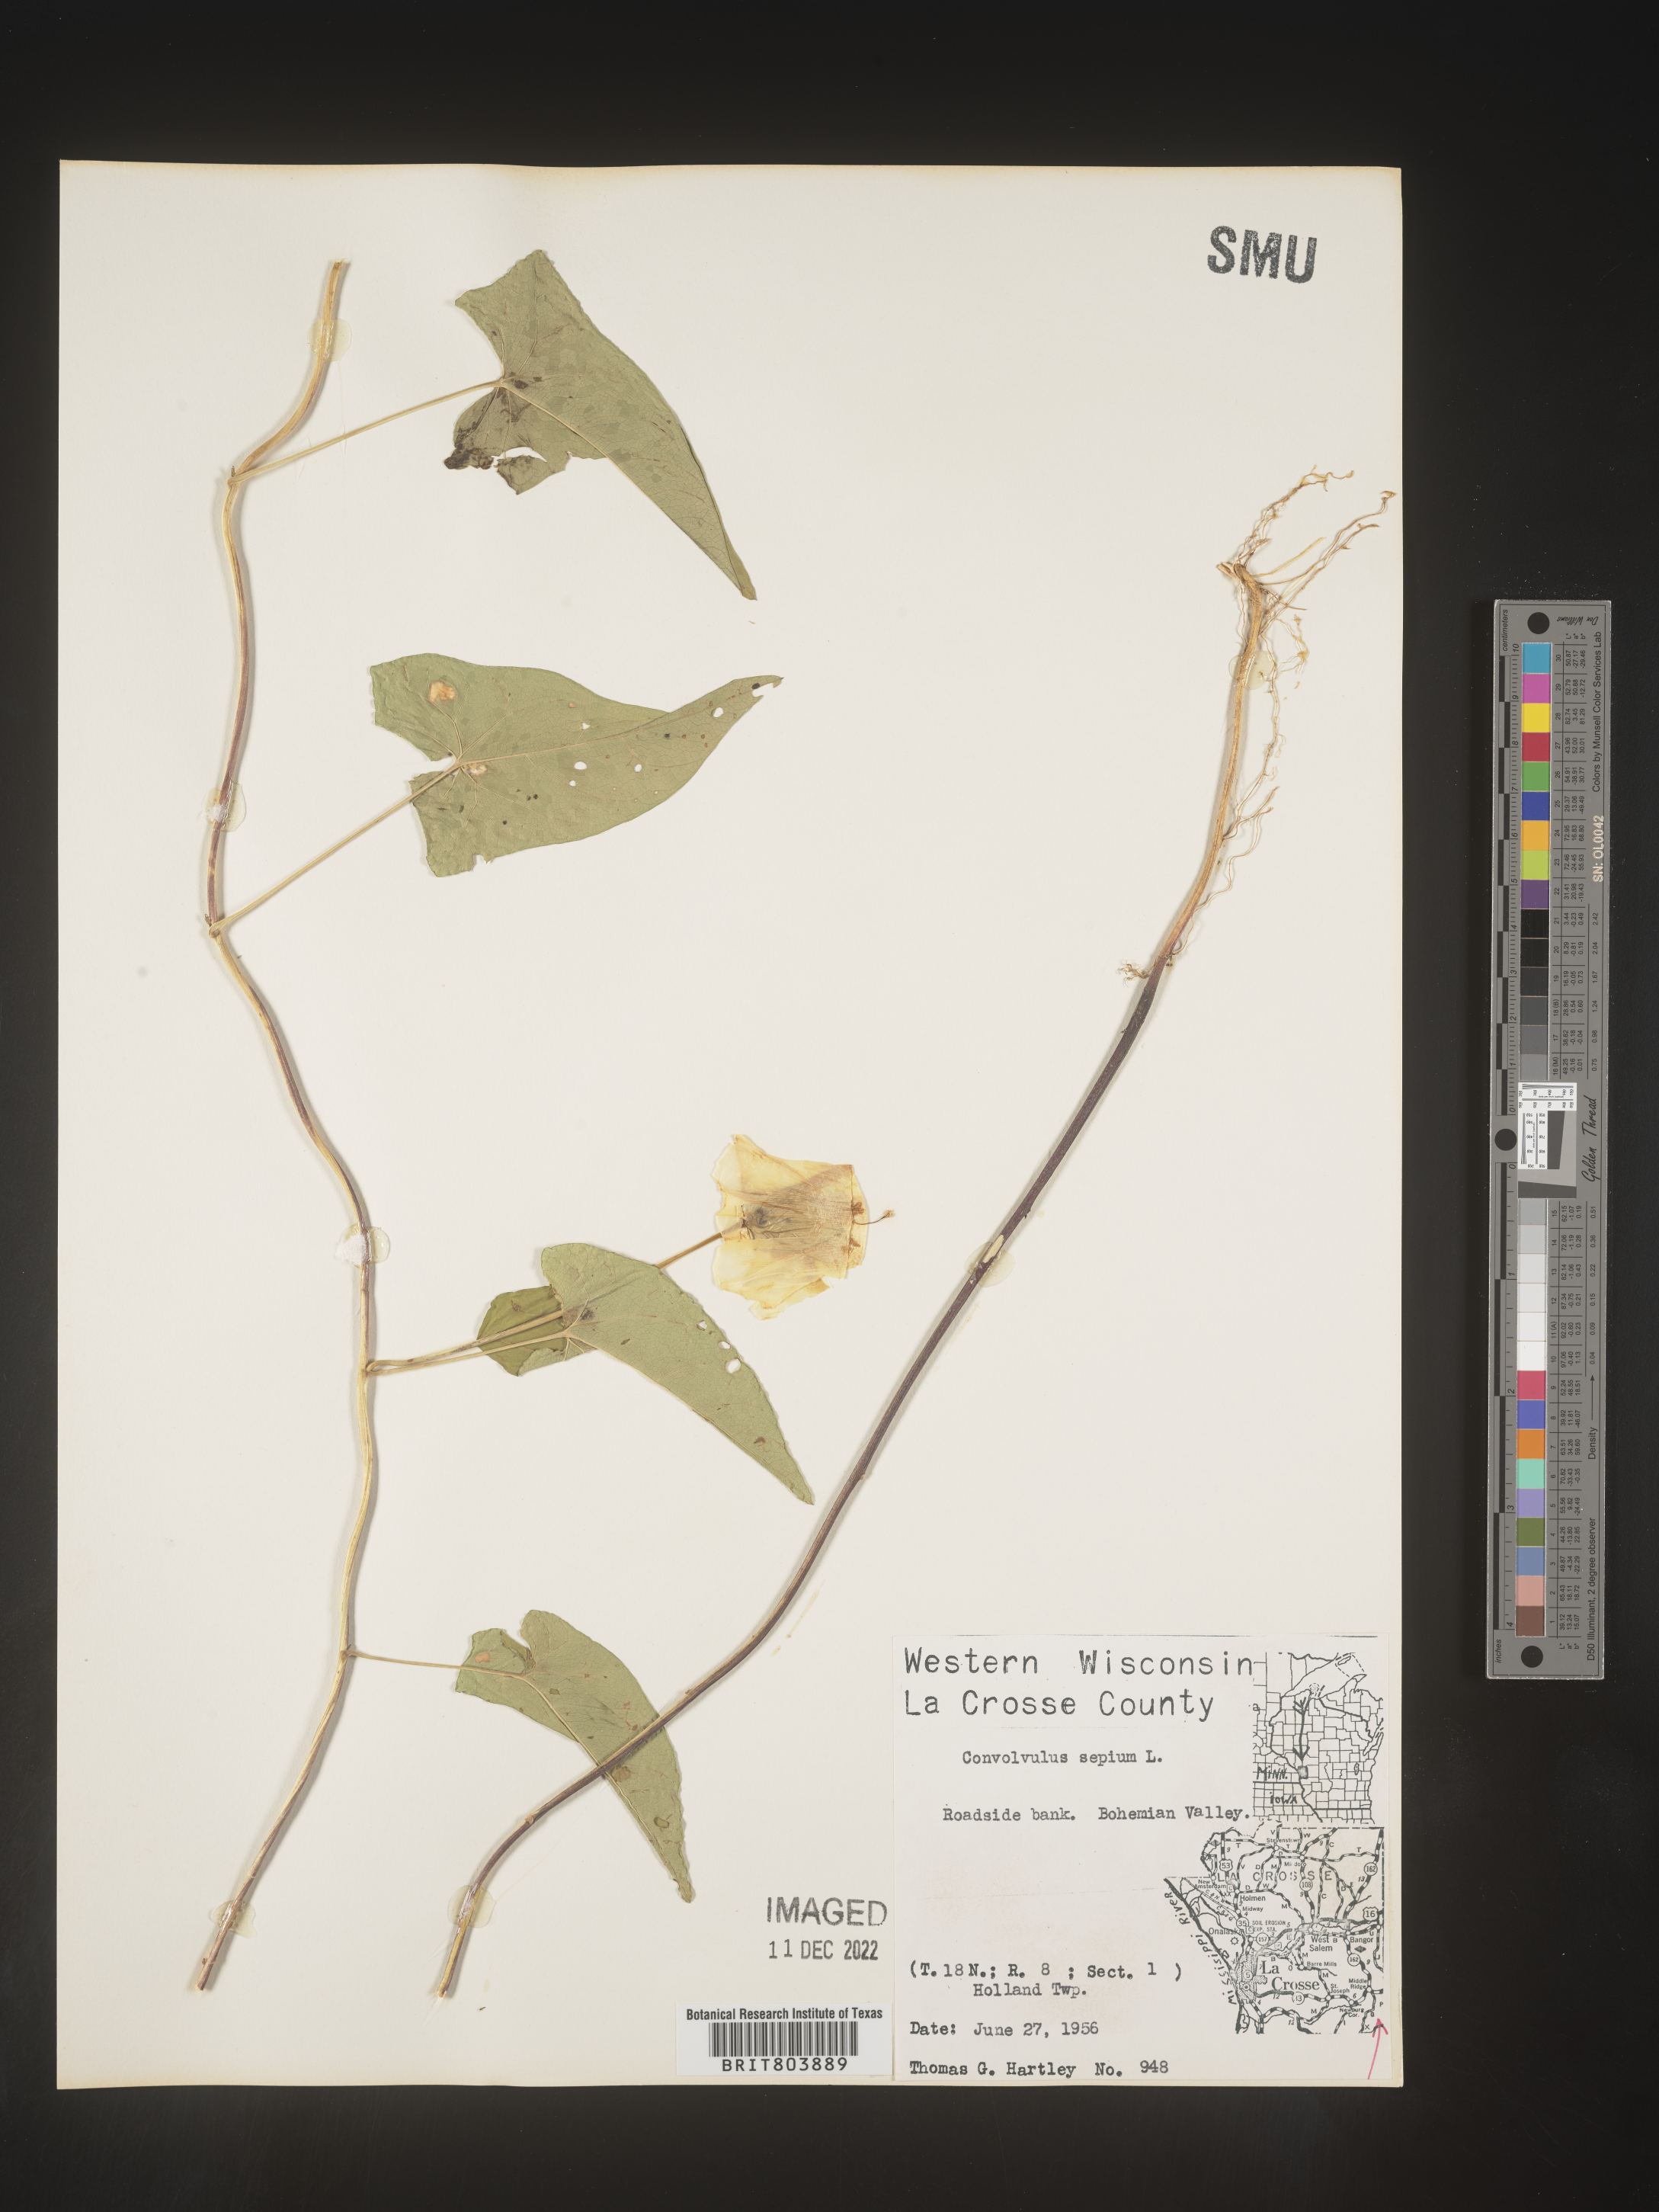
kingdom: Plantae
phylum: Tracheophyta
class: Magnoliopsida
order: Solanales
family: Convolvulaceae
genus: Calystegia
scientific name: Calystegia sepium
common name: Hedge bindweed
